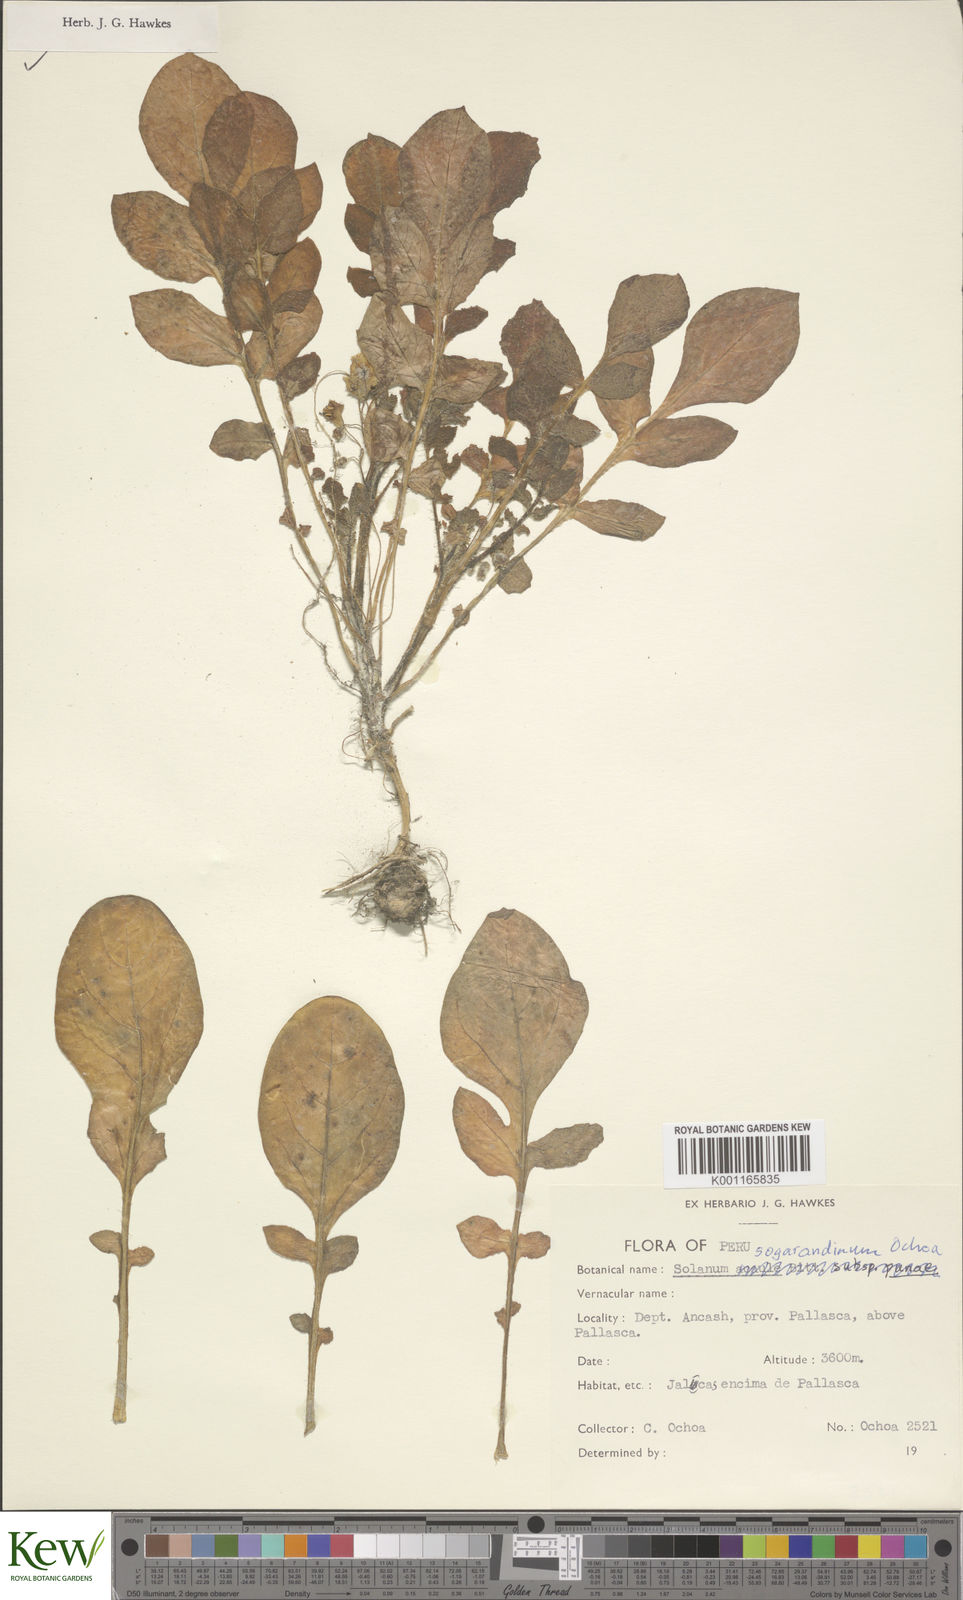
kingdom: Plantae
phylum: Tracheophyta
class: Magnoliopsida
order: Solanales
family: Solanaceae
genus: Solanum
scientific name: Solanum sogarandinum
